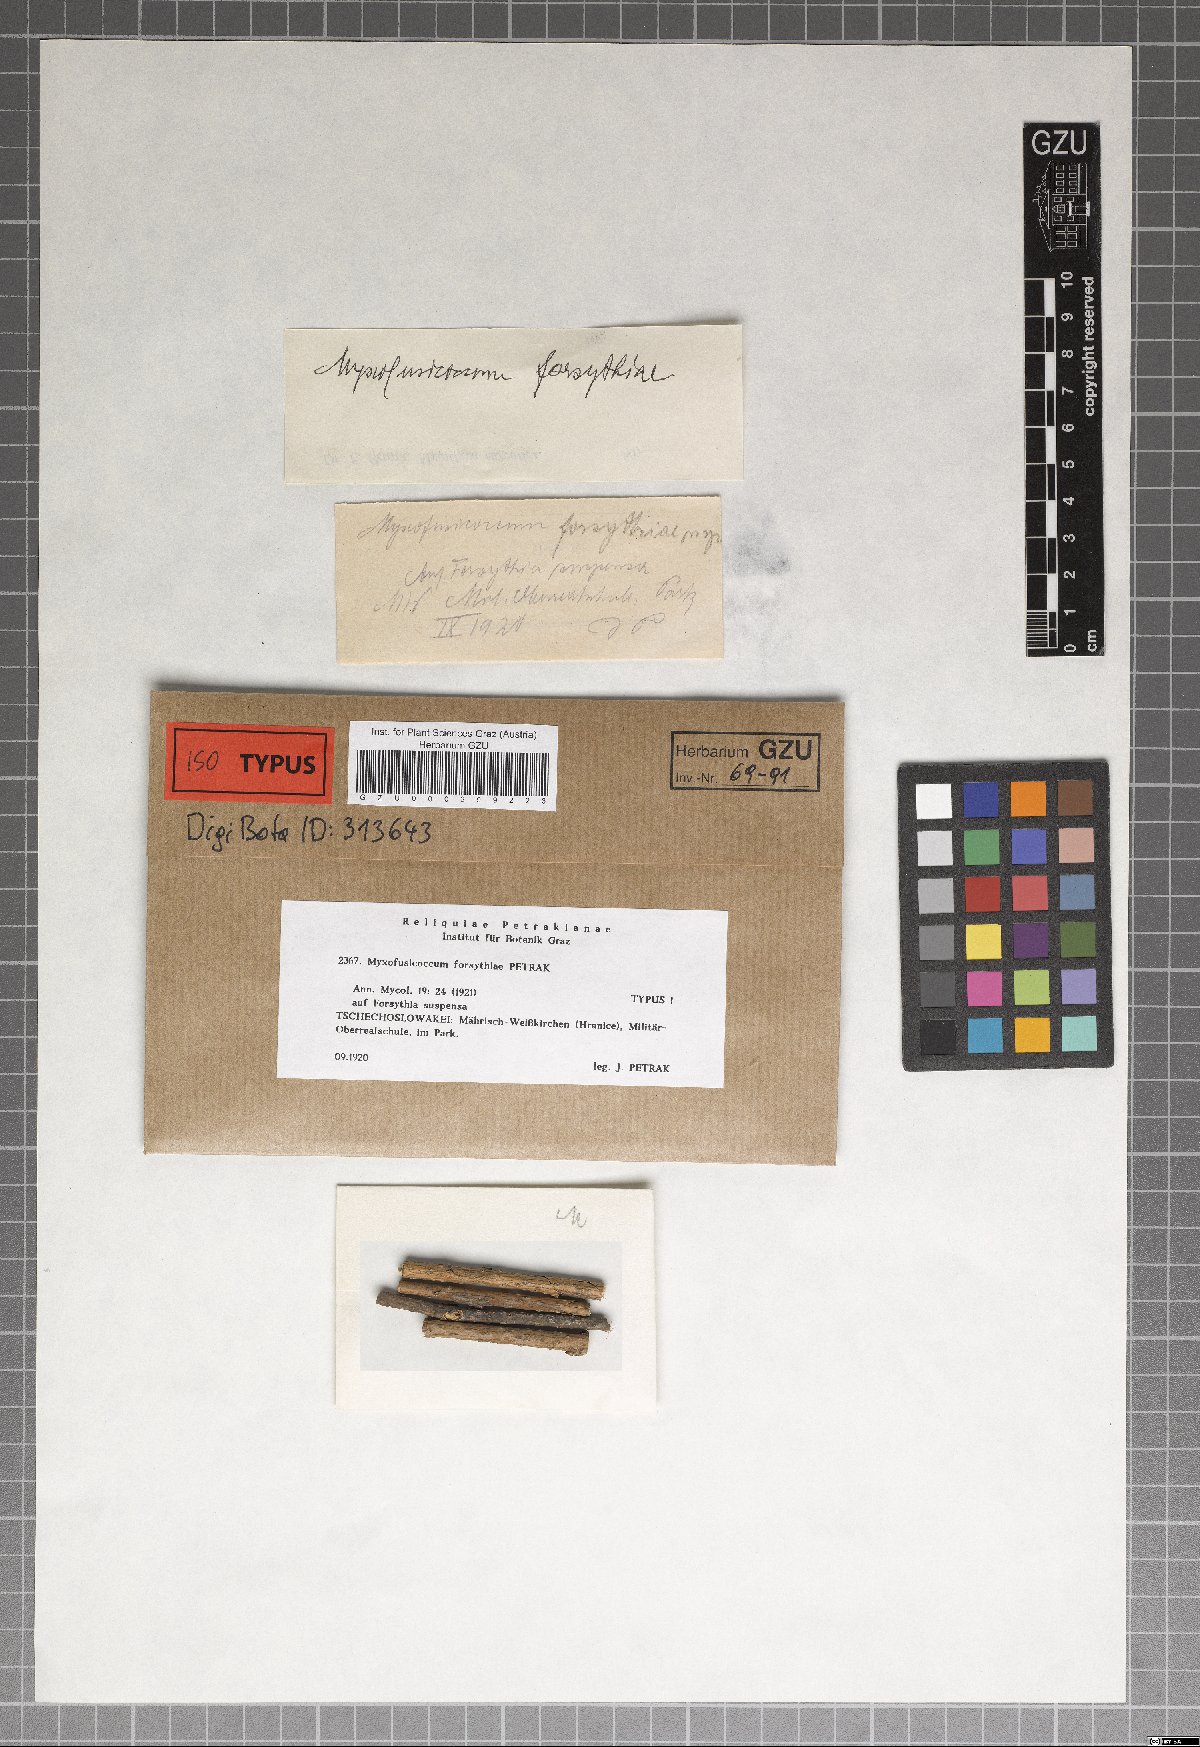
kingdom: Fungi
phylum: Ascomycota
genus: Myxofusicoccum
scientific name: Myxofusicoccum forsythiae
